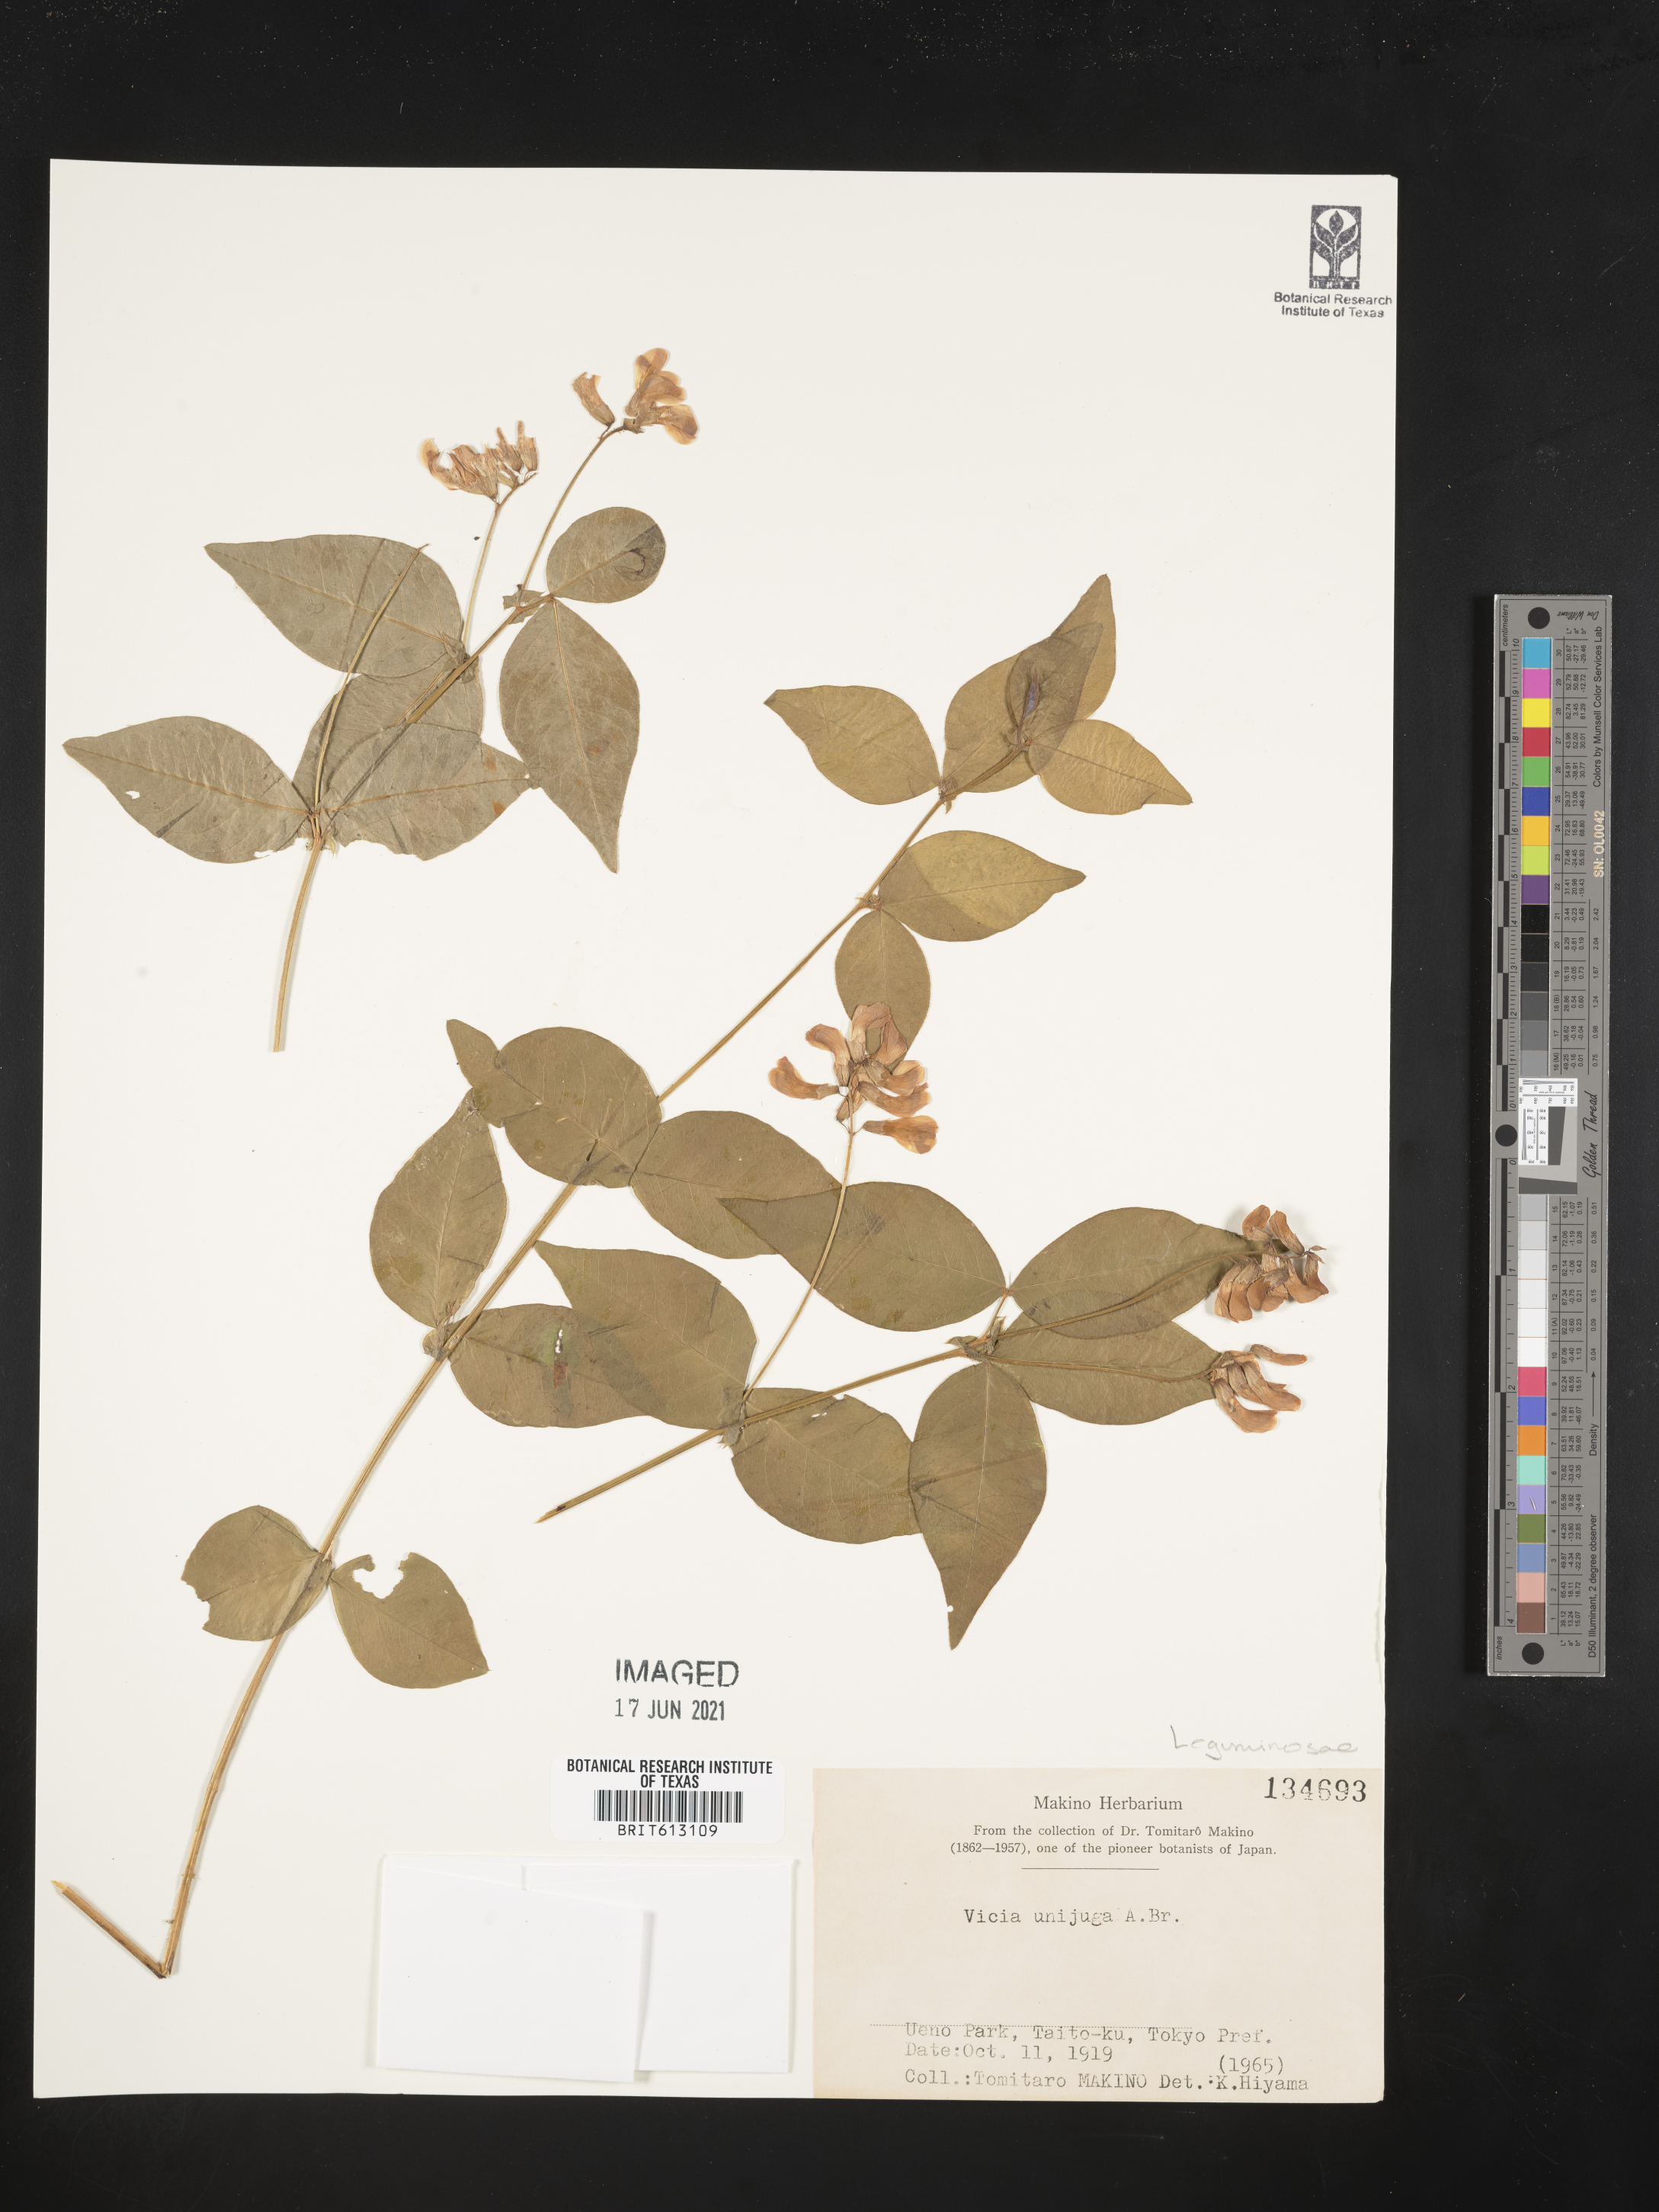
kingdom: Plantae
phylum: Tracheophyta
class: Magnoliopsida
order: Fabales
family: Fabaceae
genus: Vicia
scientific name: Vicia unijuga
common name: Two-leaf vetch
